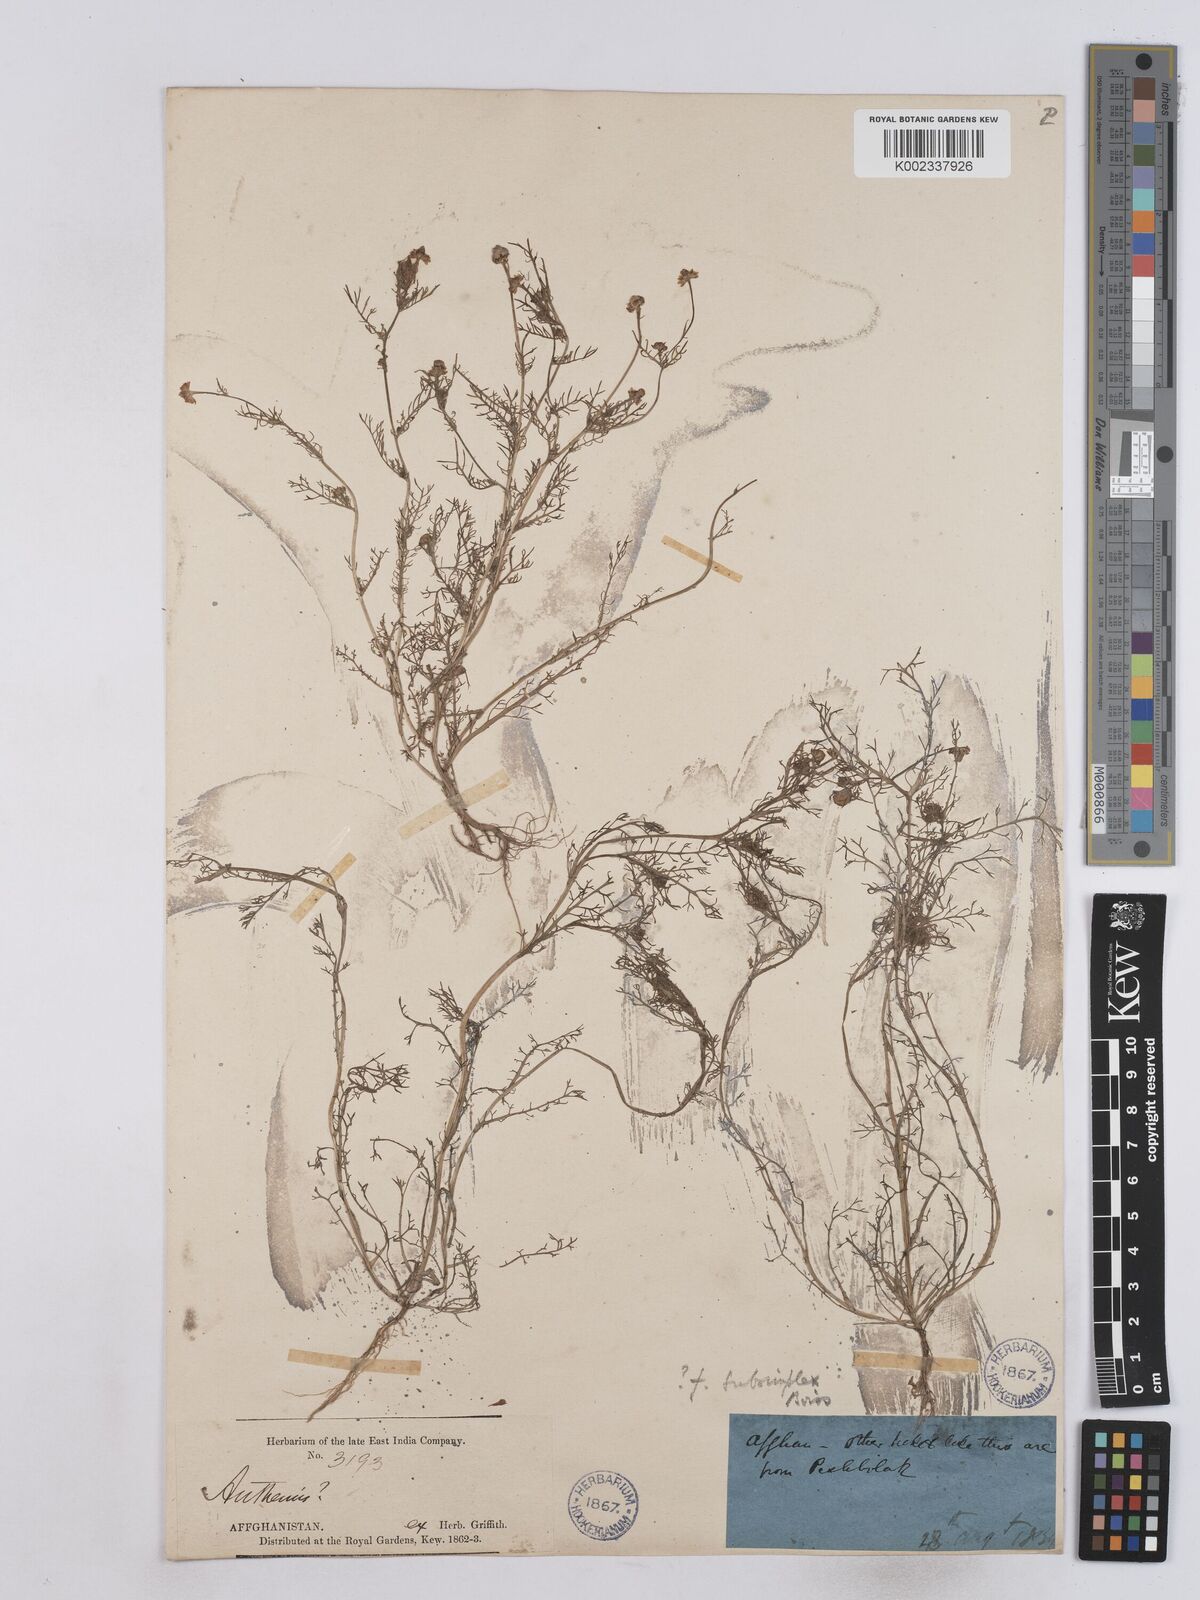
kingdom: Plantae
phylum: Tracheophyta
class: Magnoliopsida
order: Asterales
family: Asteraceae
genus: Matricaria
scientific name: Matricaria aurea
